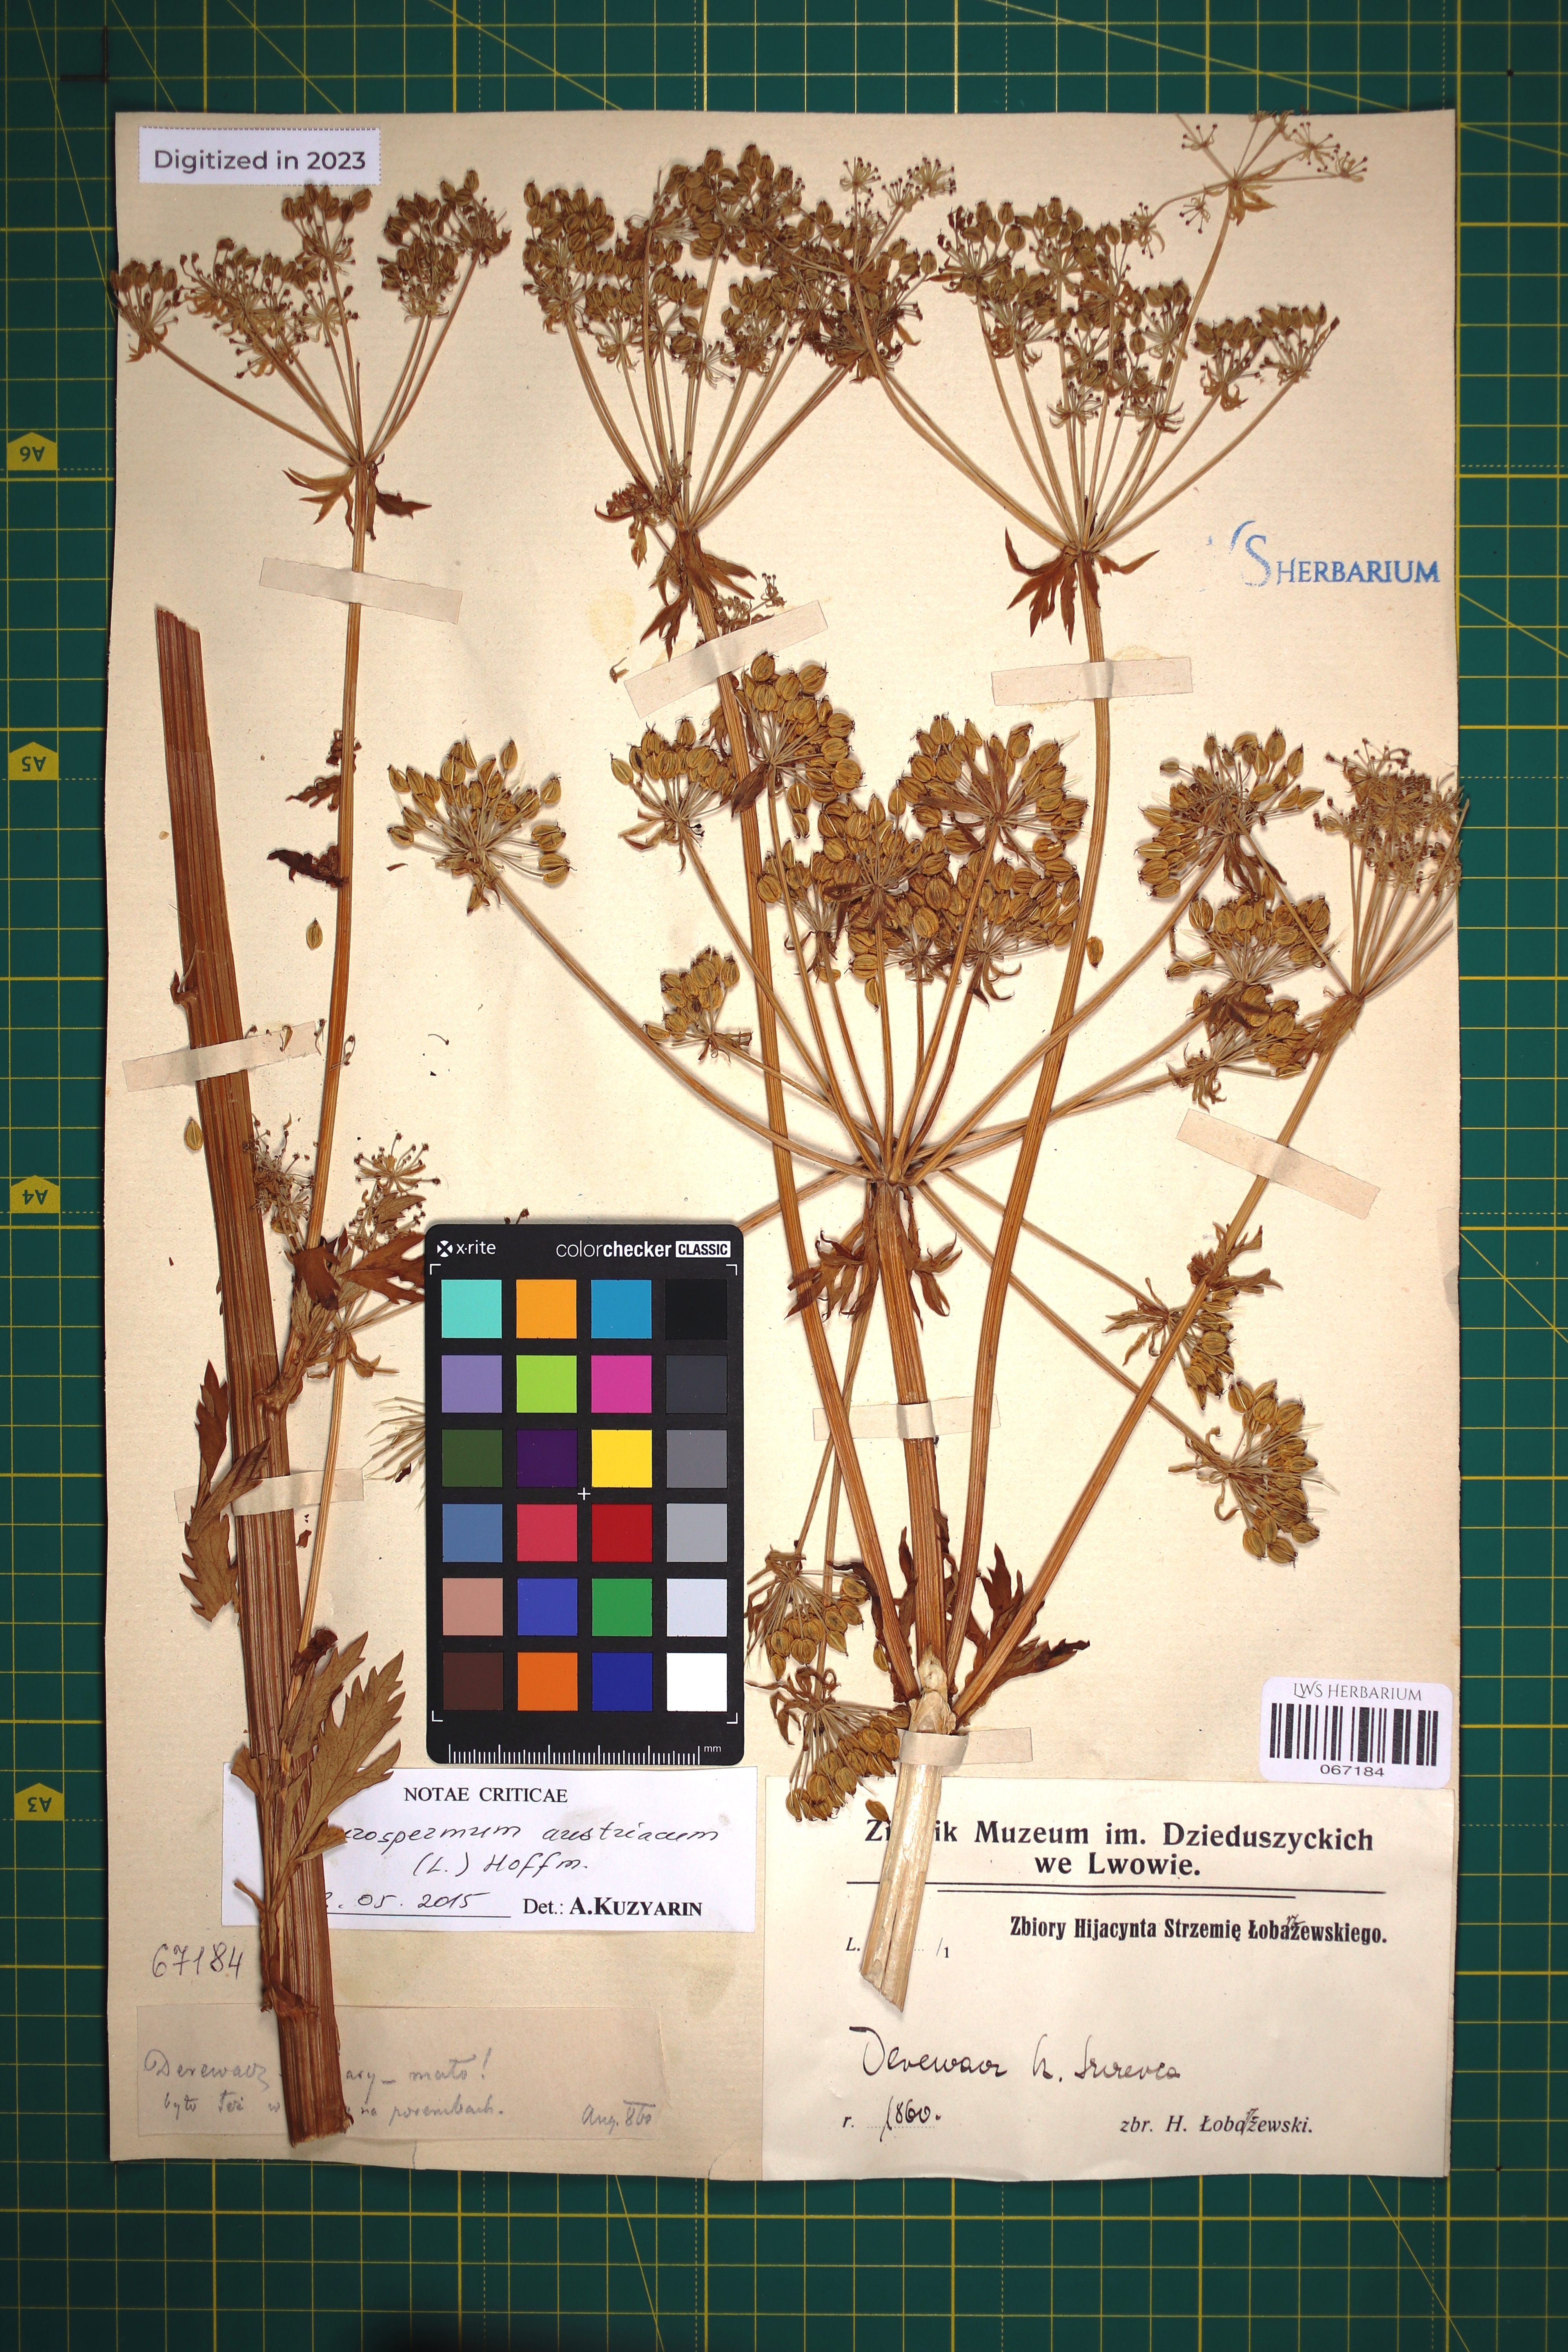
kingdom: Plantae
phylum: Tracheophyta
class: Magnoliopsida
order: Apiales
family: Apiaceae
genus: Pleurospermum
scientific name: Pleurospermum austriacum
